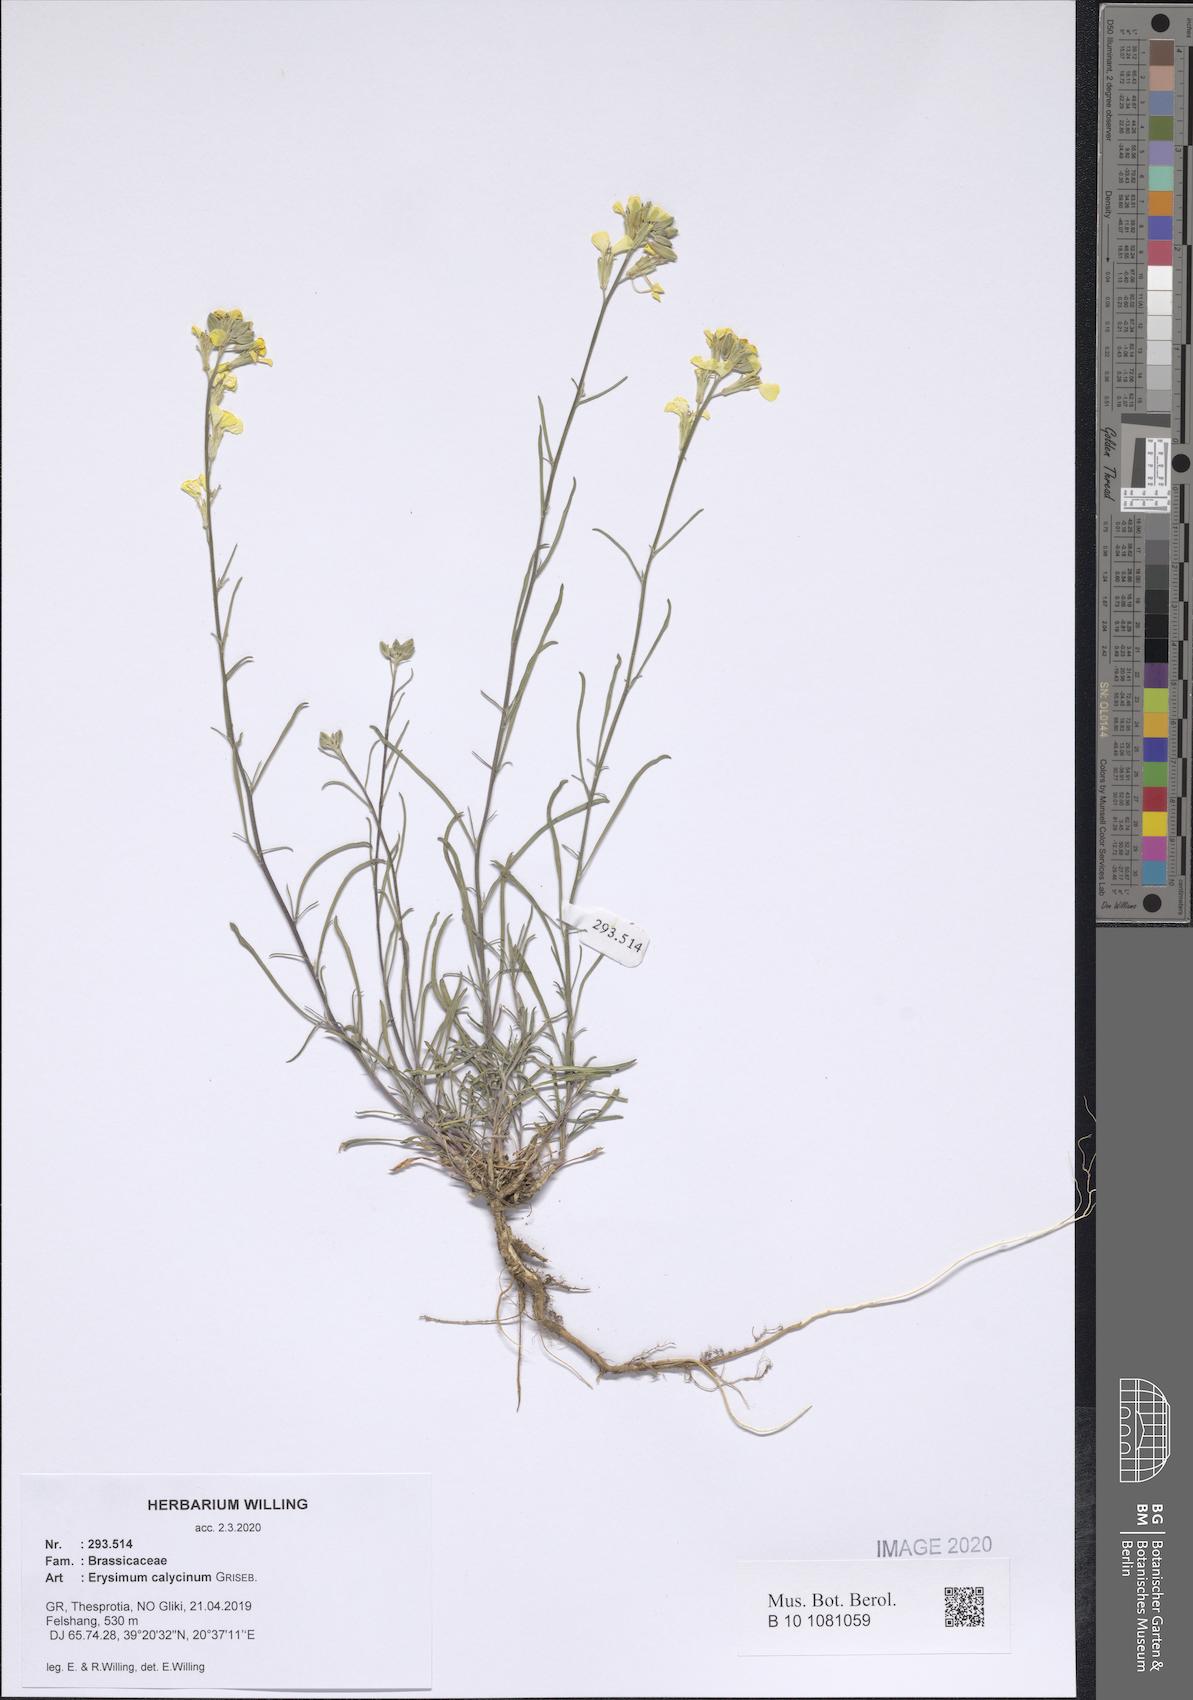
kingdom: Plantae
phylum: Tracheophyta
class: Magnoliopsida
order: Brassicales
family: Brassicaceae
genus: Erysimum
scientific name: Erysimum calycinum
